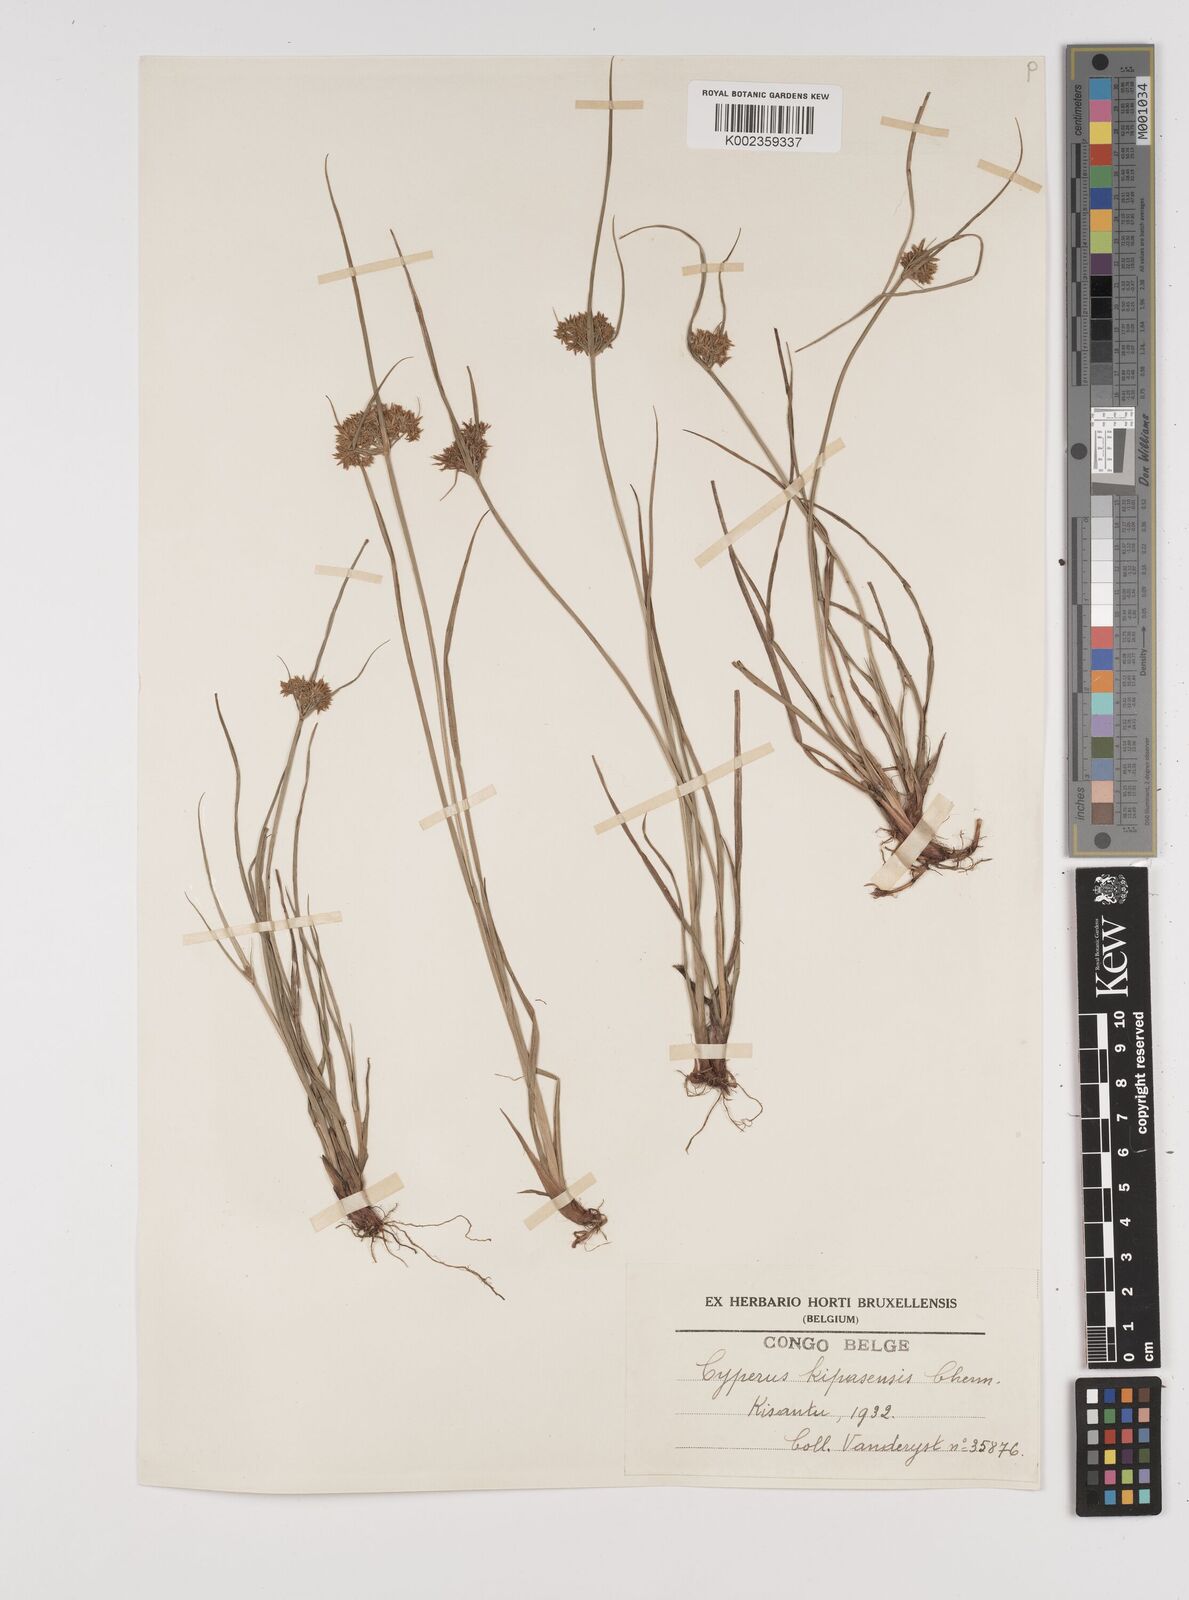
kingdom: Plantae
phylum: Tracheophyta
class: Liliopsida
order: Poales
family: Cyperaceae
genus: Cyperus
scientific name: Cyperus kipasensis
